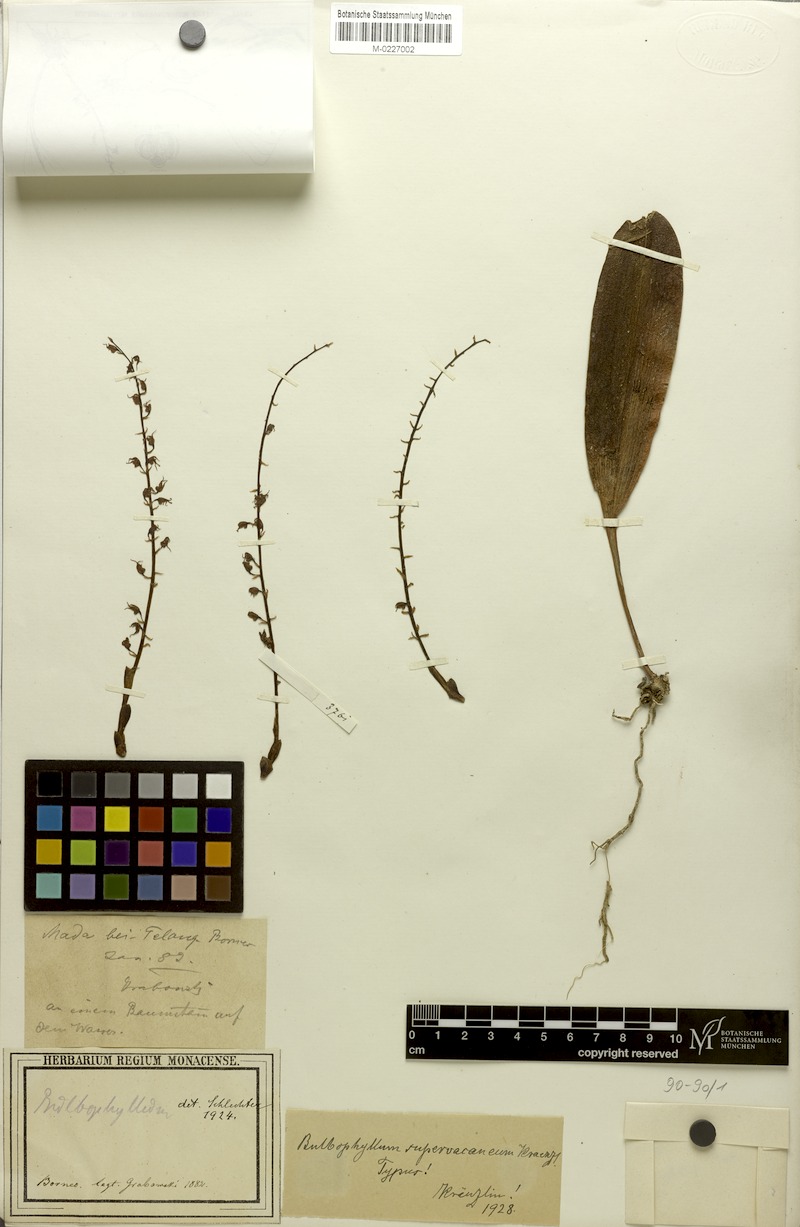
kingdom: Plantae
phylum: Tracheophyta
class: Liliopsida
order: Asparagales
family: Orchidaceae
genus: Bulbophyllum
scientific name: Bulbophyllum odoratum
